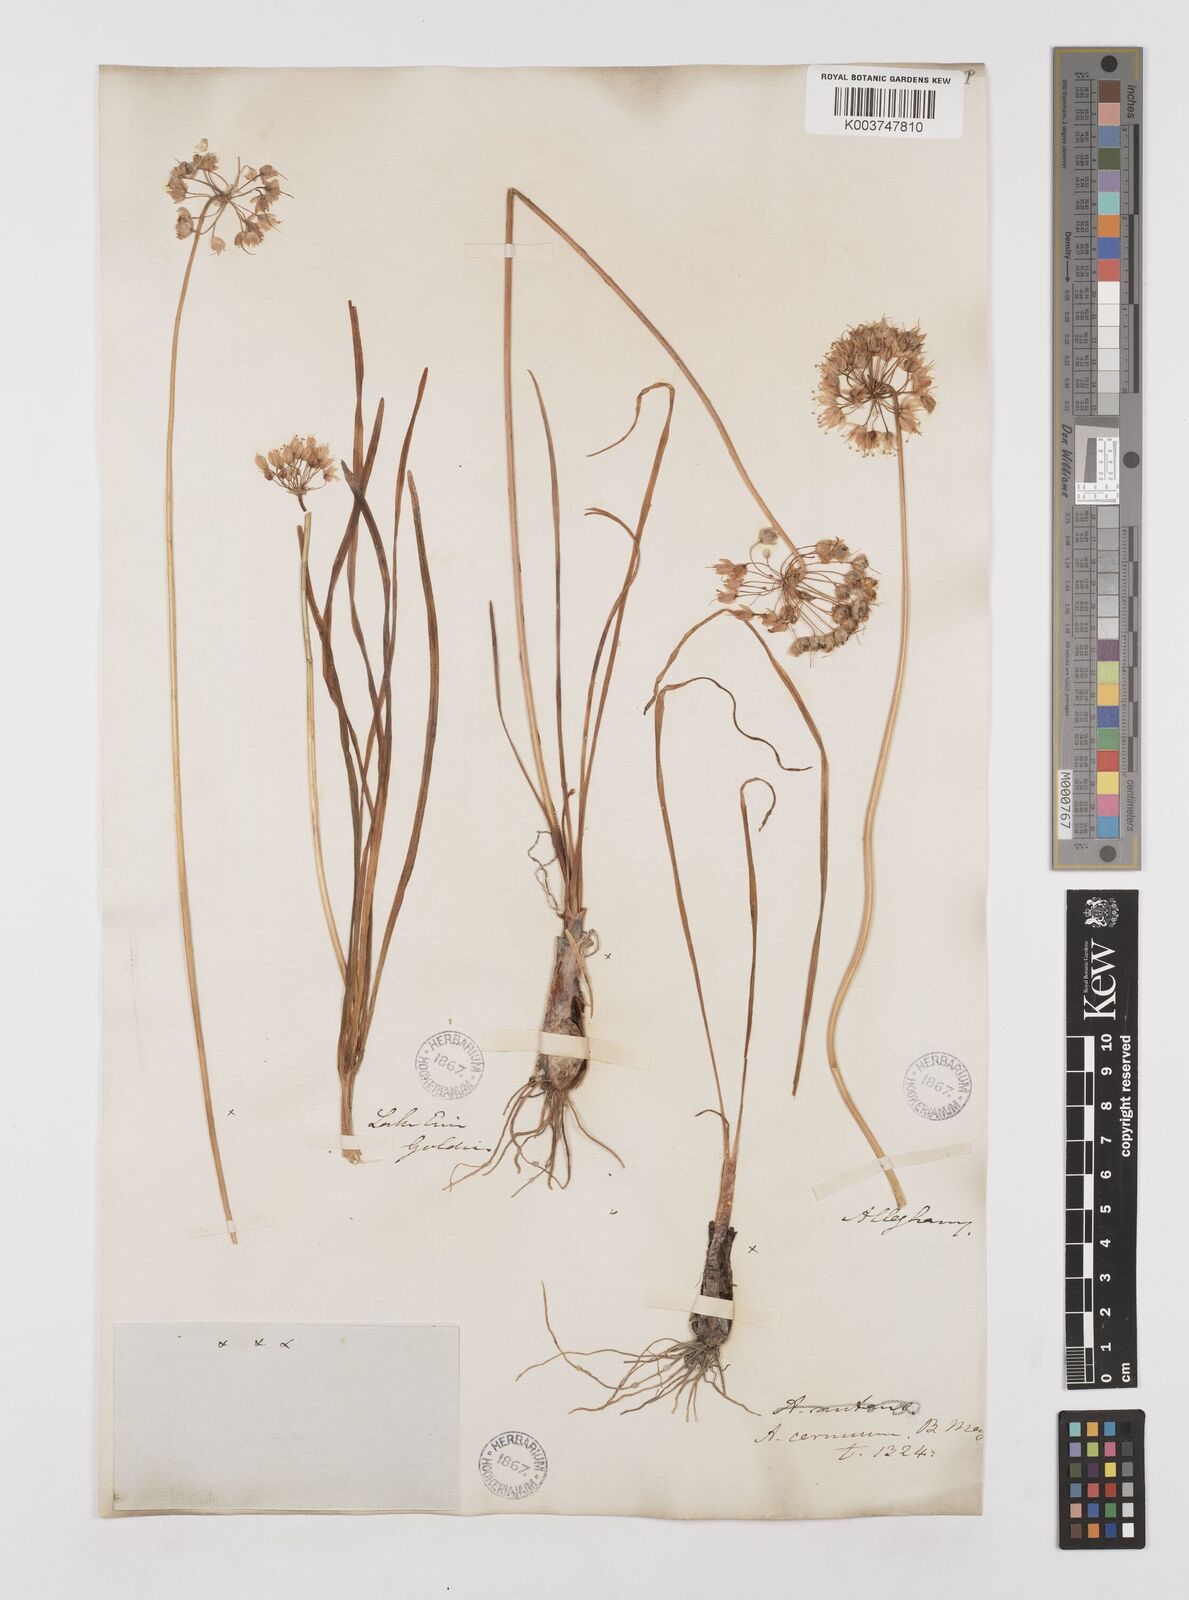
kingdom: Plantae
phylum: Tracheophyta
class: Liliopsida
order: Asparagales
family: Amaryllidaceae
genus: Allium
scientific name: Allium cernuum
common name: Nodding onion
